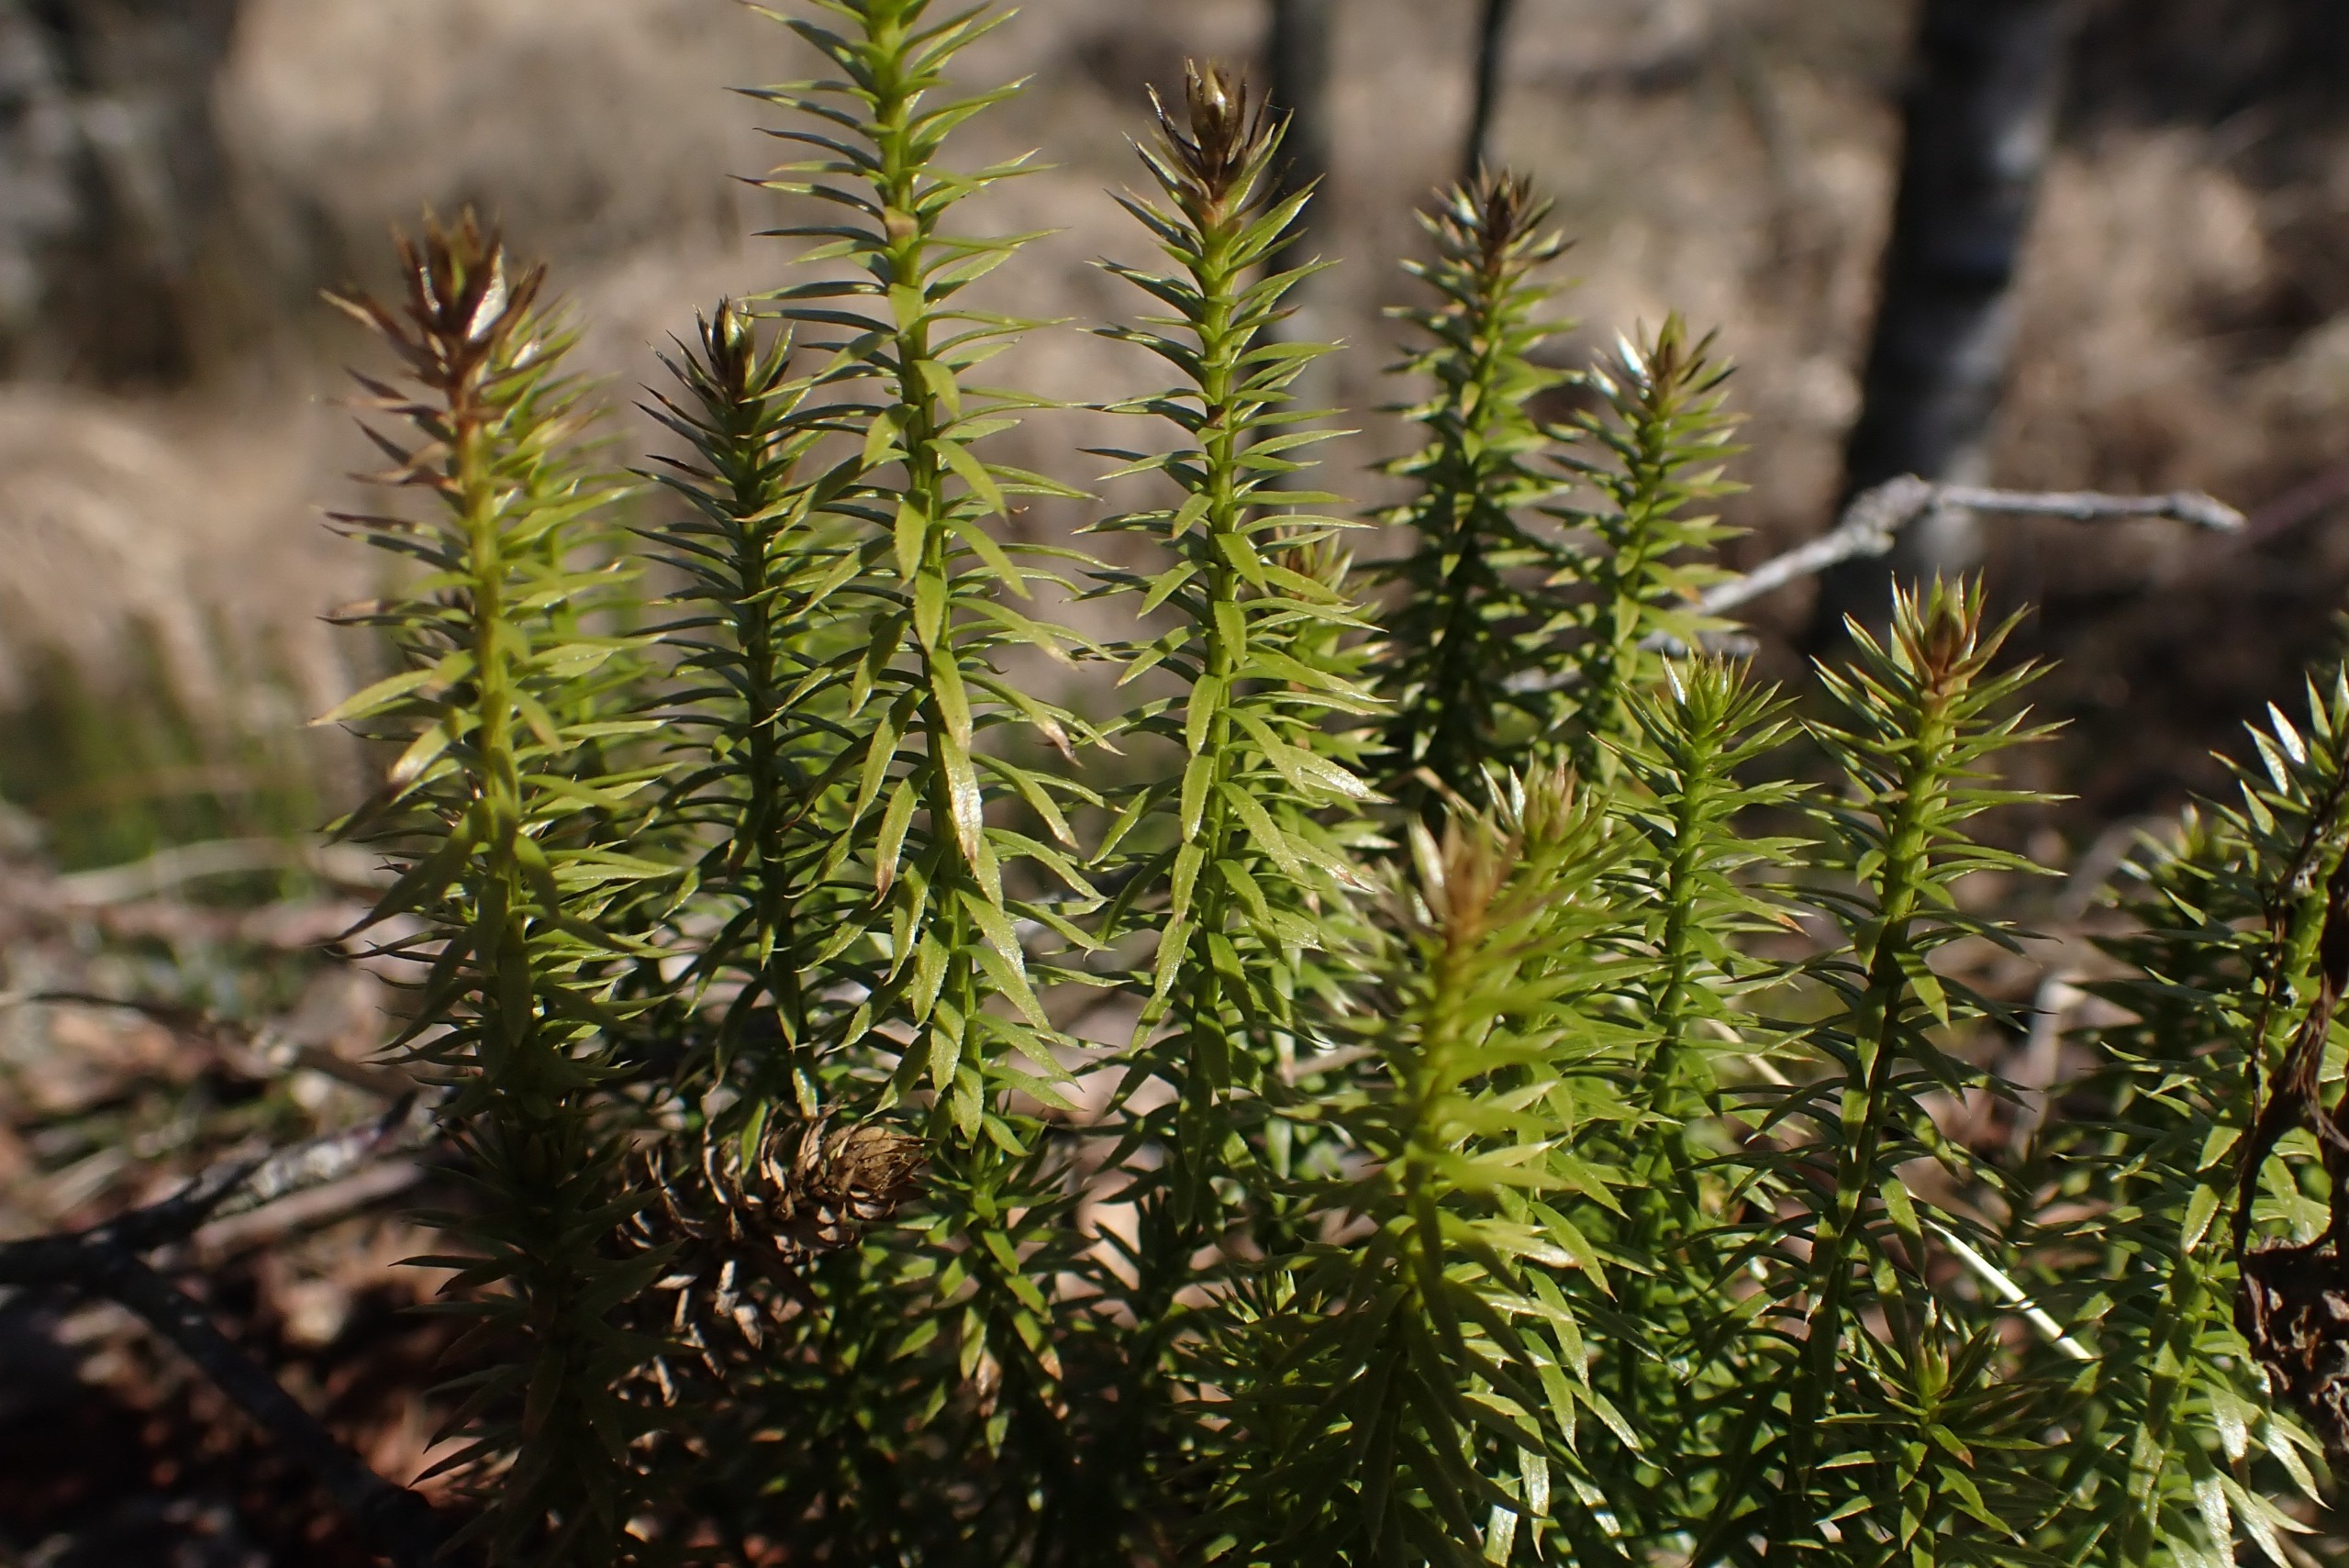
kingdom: Plantae
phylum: Tracheophyta
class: Lycopodiopsida
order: Lycopodiales
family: Lycopodiaceae
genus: Spinulum
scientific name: Spinulum annotinum
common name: Femradet ulvefod
